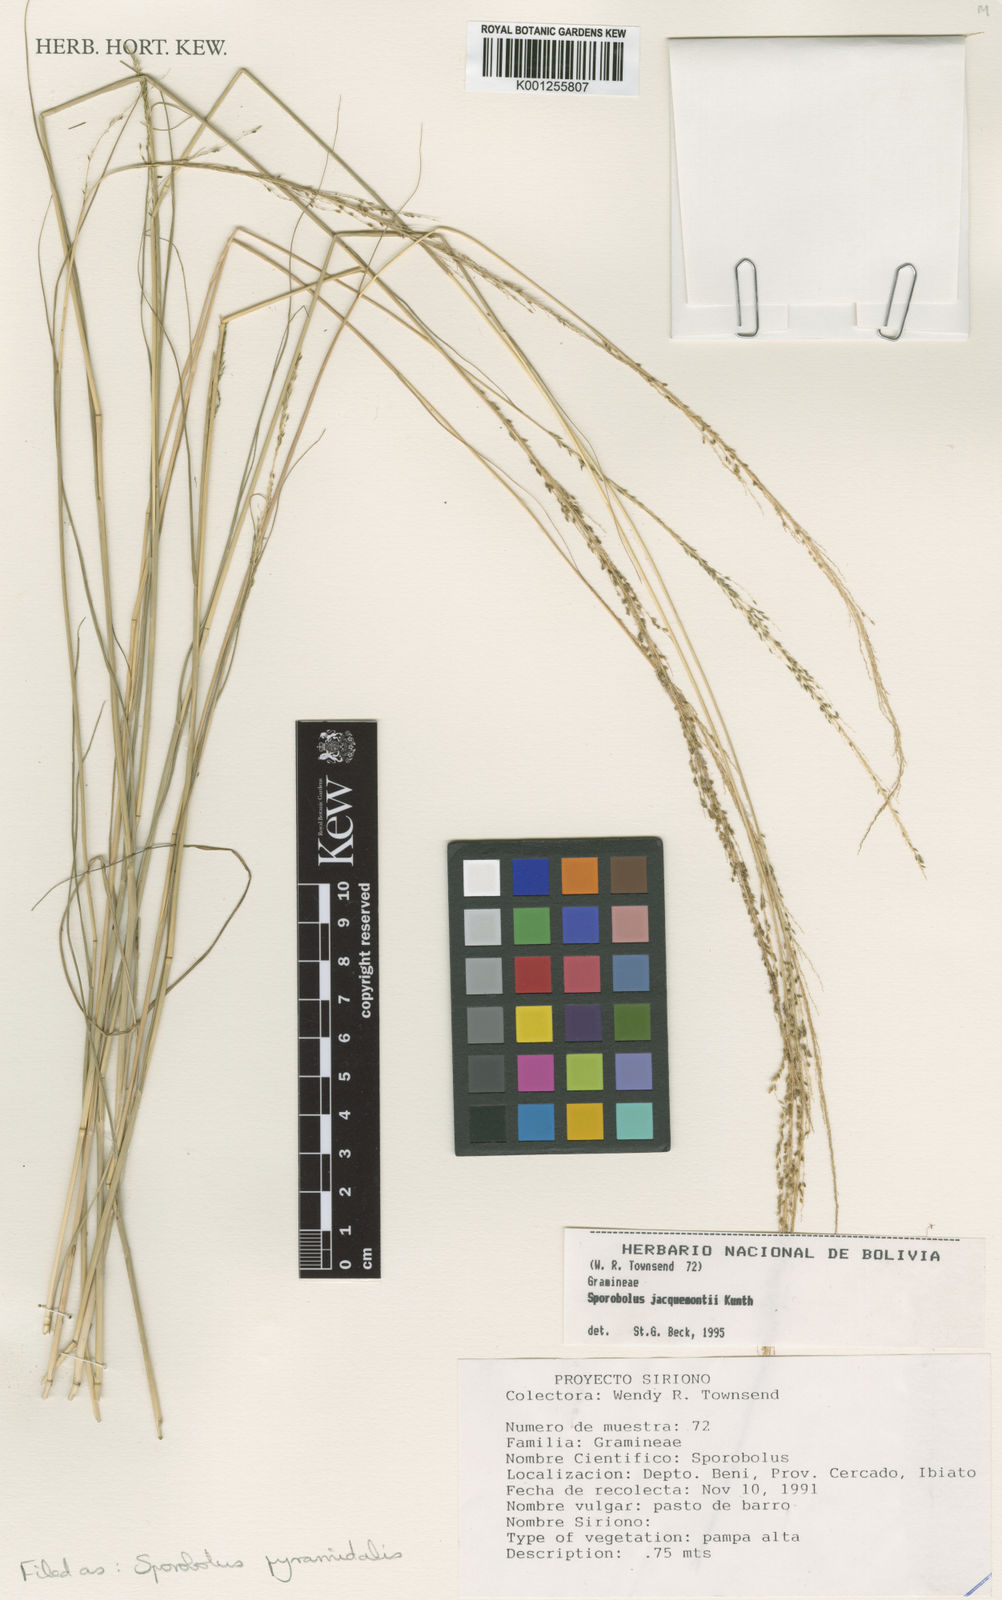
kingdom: Plantae
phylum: Tracheophyta
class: Liliopsida
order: Poales
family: Poaceae
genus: Sporobolus
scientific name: Sporobolus pyramidalis
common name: West indian dropseed
